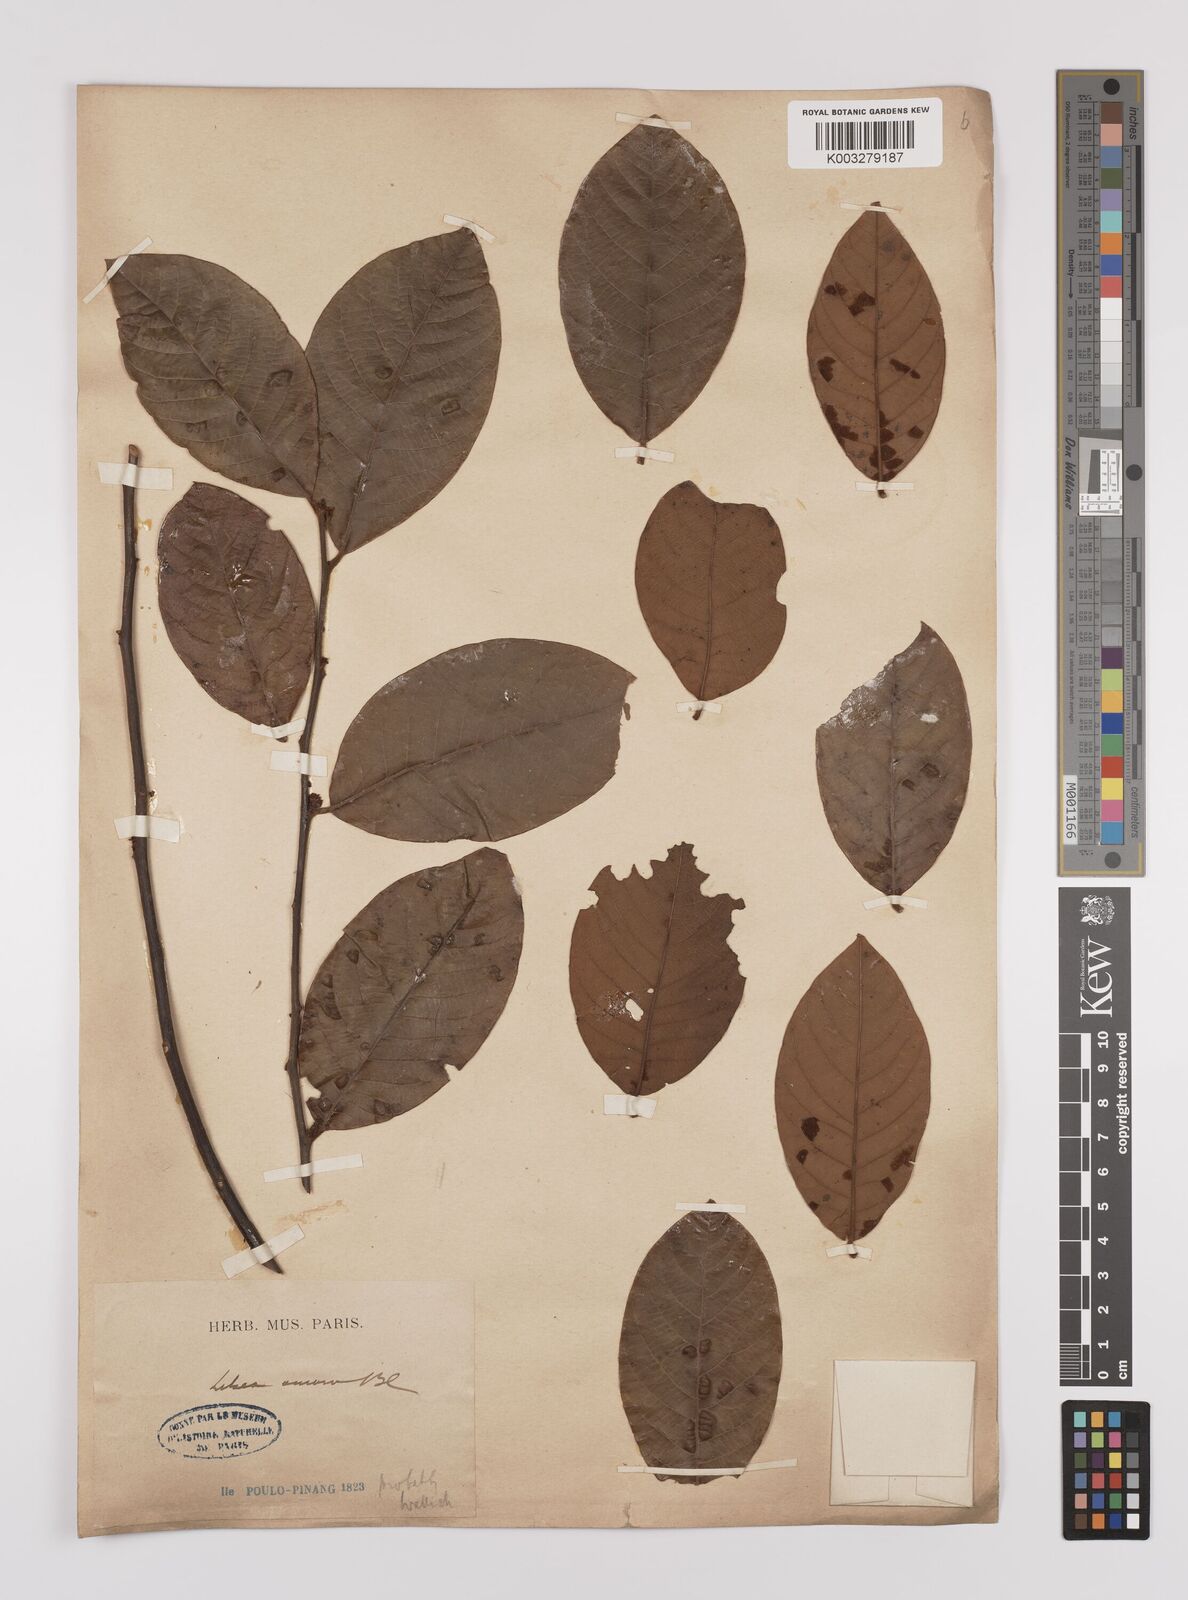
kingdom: Plantae
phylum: Tracheophyta
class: Magnoliopsida
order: Laurales
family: Lauraceae
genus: Litsea
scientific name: Litsea umbellata
